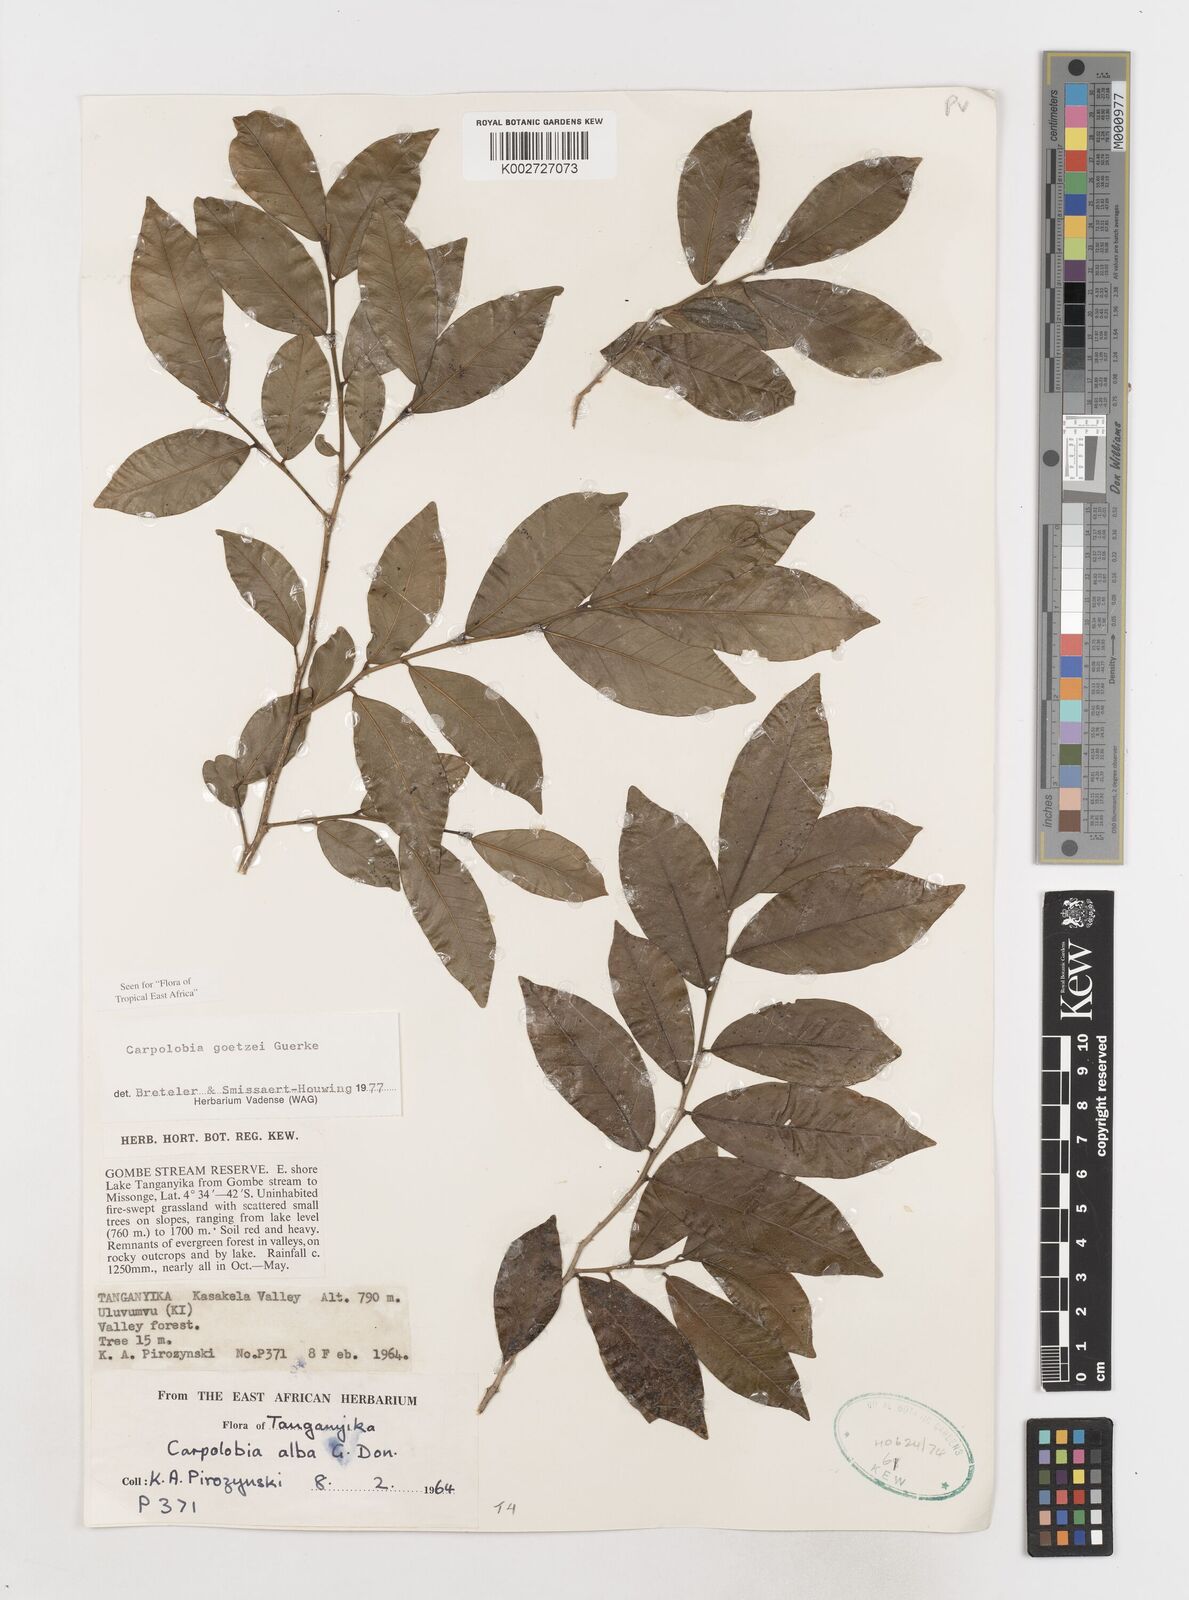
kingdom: Plantae
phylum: Tracheophyta
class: Magnoliopsida
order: Fabales
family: Polygalaceae
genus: Carpolobia
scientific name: Carpolobia goetzei
